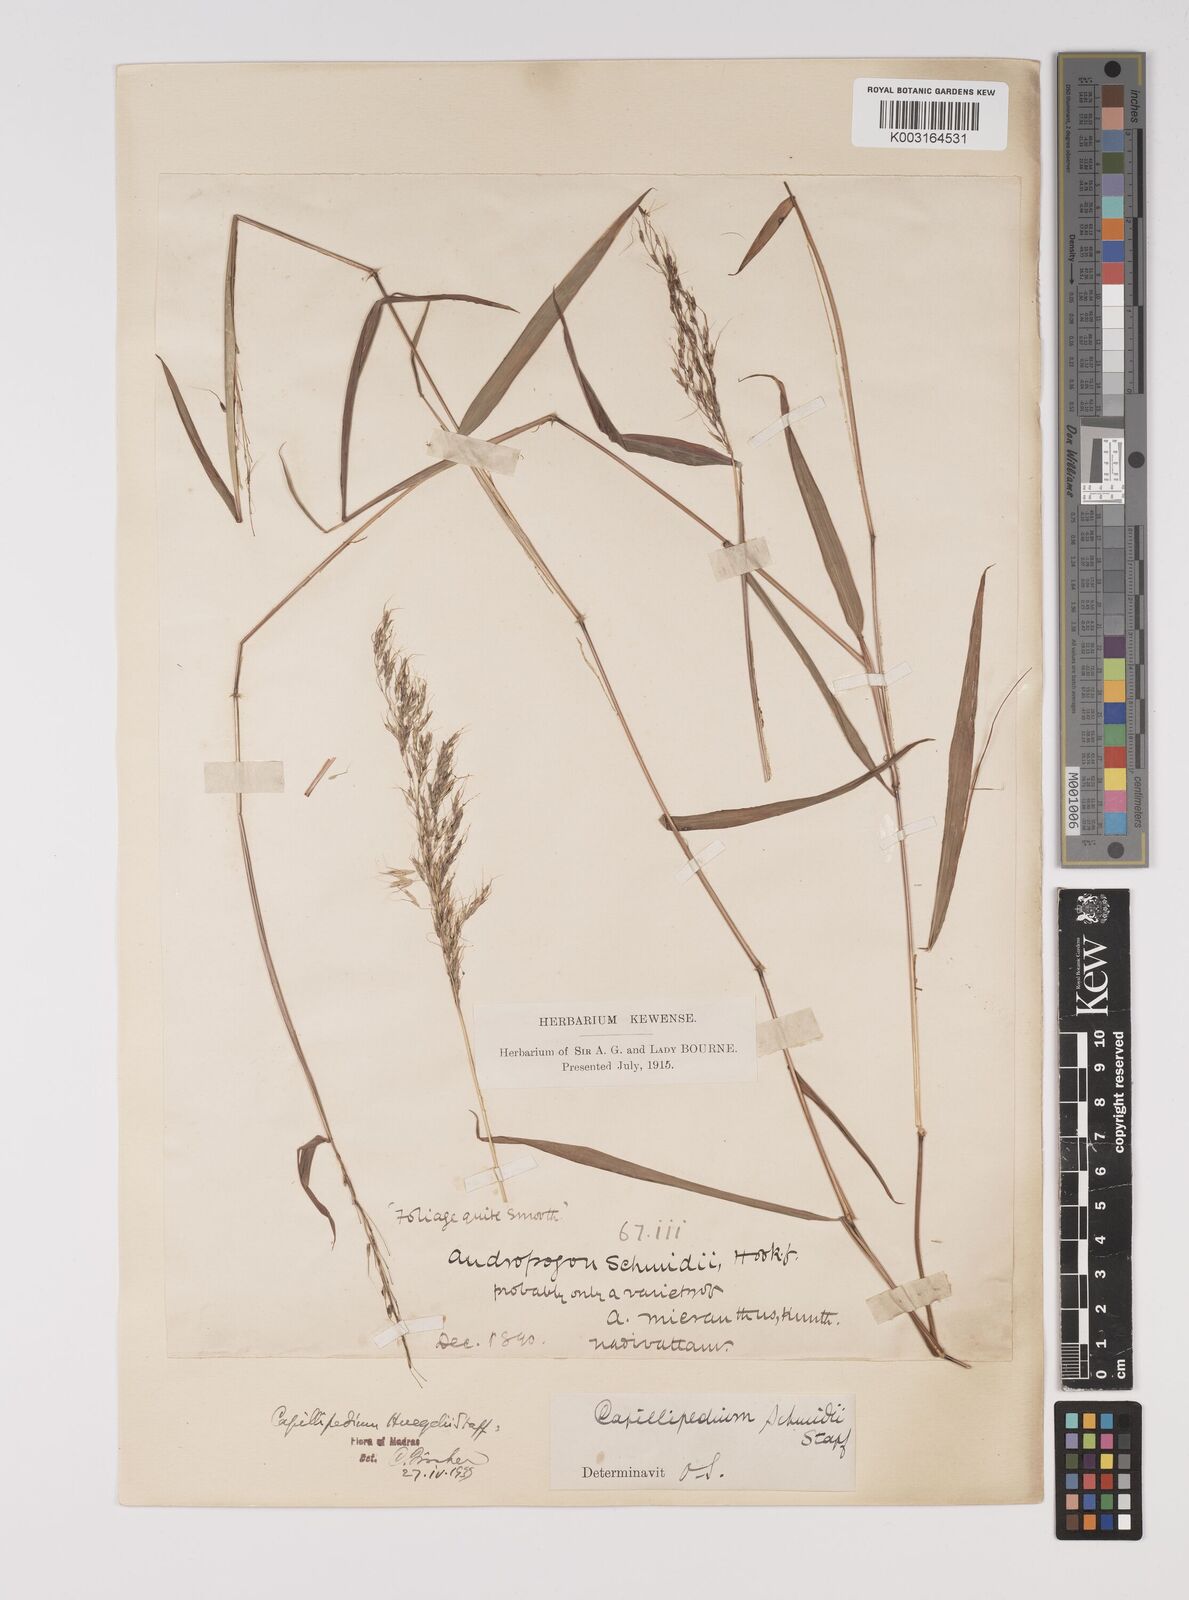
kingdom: Plantae
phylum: Tracheophyta
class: Liliopsida
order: Poales
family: Poaceae
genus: Capillipedium
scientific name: Capillipedium huegelii
